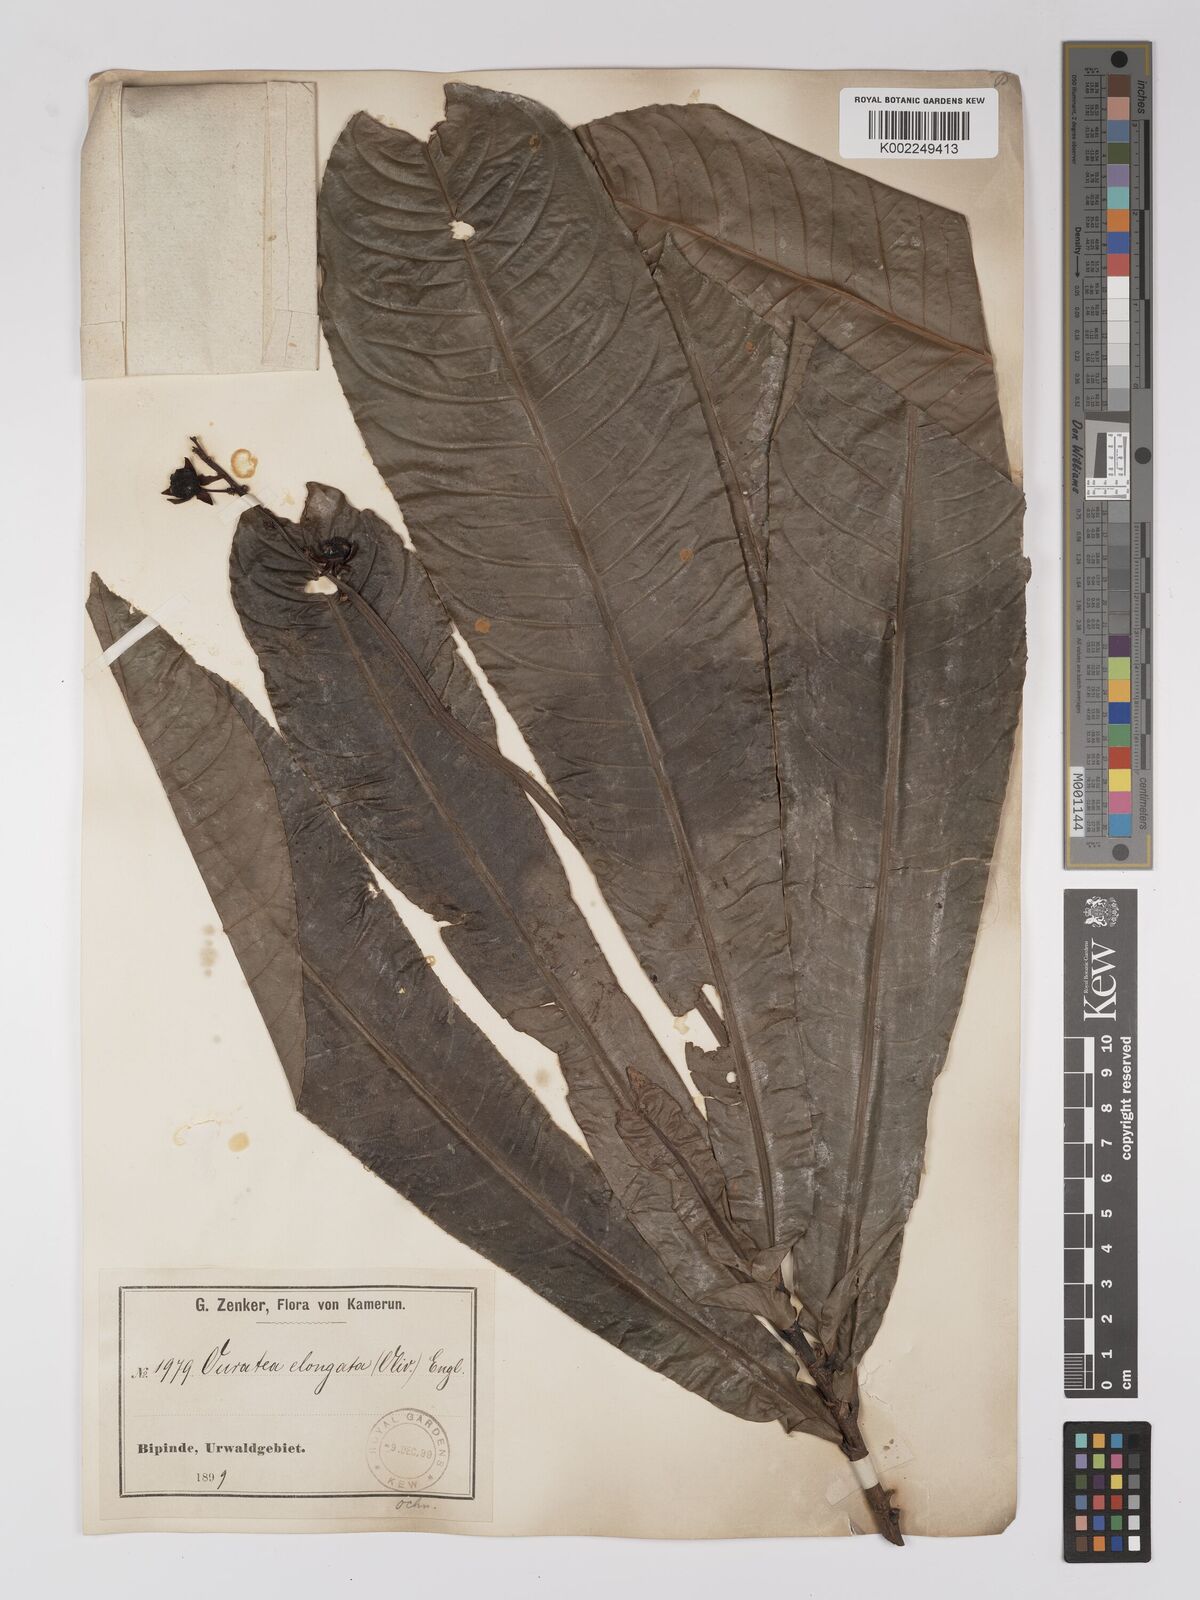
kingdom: Plantae
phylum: Tracheophyta
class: Magnoliopsida
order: Malpighiales
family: Ochnaceae
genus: Gomphia
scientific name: Gomphia elongata
